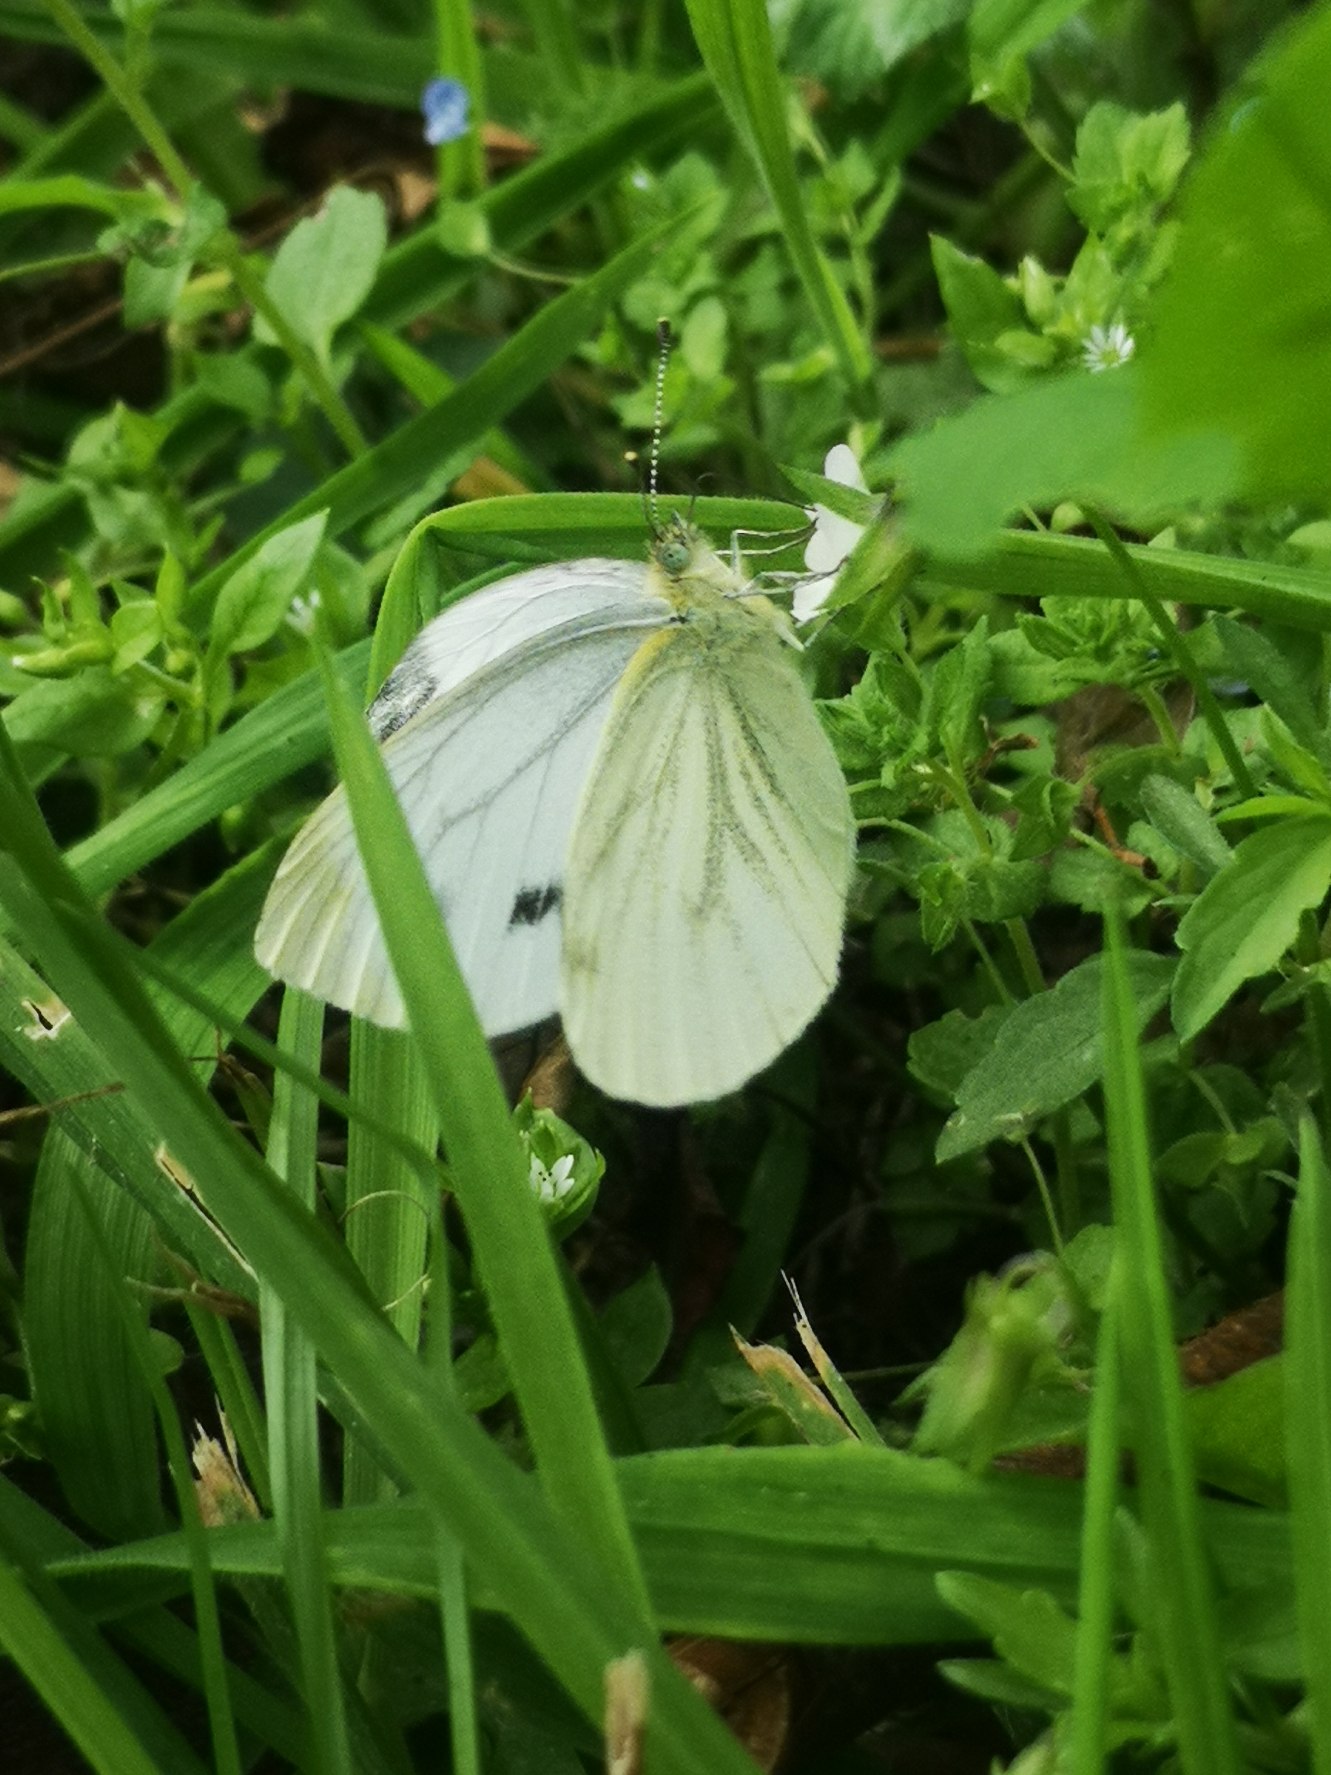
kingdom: Animalia
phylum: Arthropoda
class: Insecta
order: Lepidoptera
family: Pieridae
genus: Pieris
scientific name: Pieris napi
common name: Grønåret kålsommerfugl
